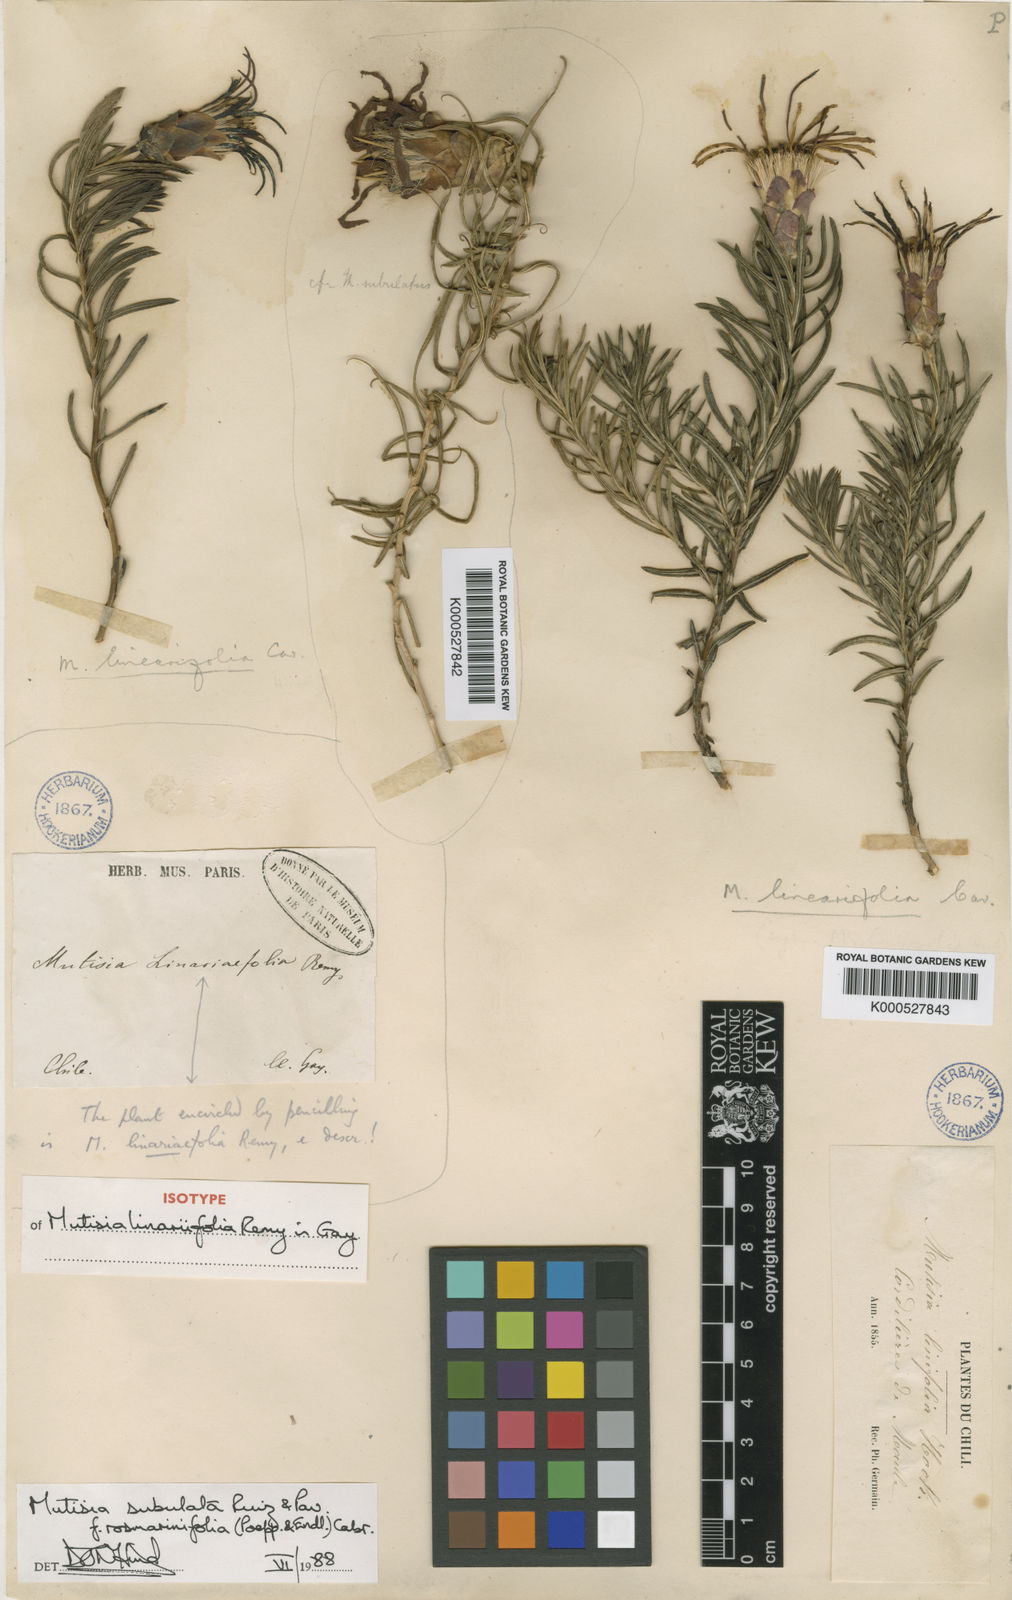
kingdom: Plantae
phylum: Tracheophyta
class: Magnoliopsida
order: Asterales
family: Asteraceae
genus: Mutisia
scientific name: Mutisia subulata
